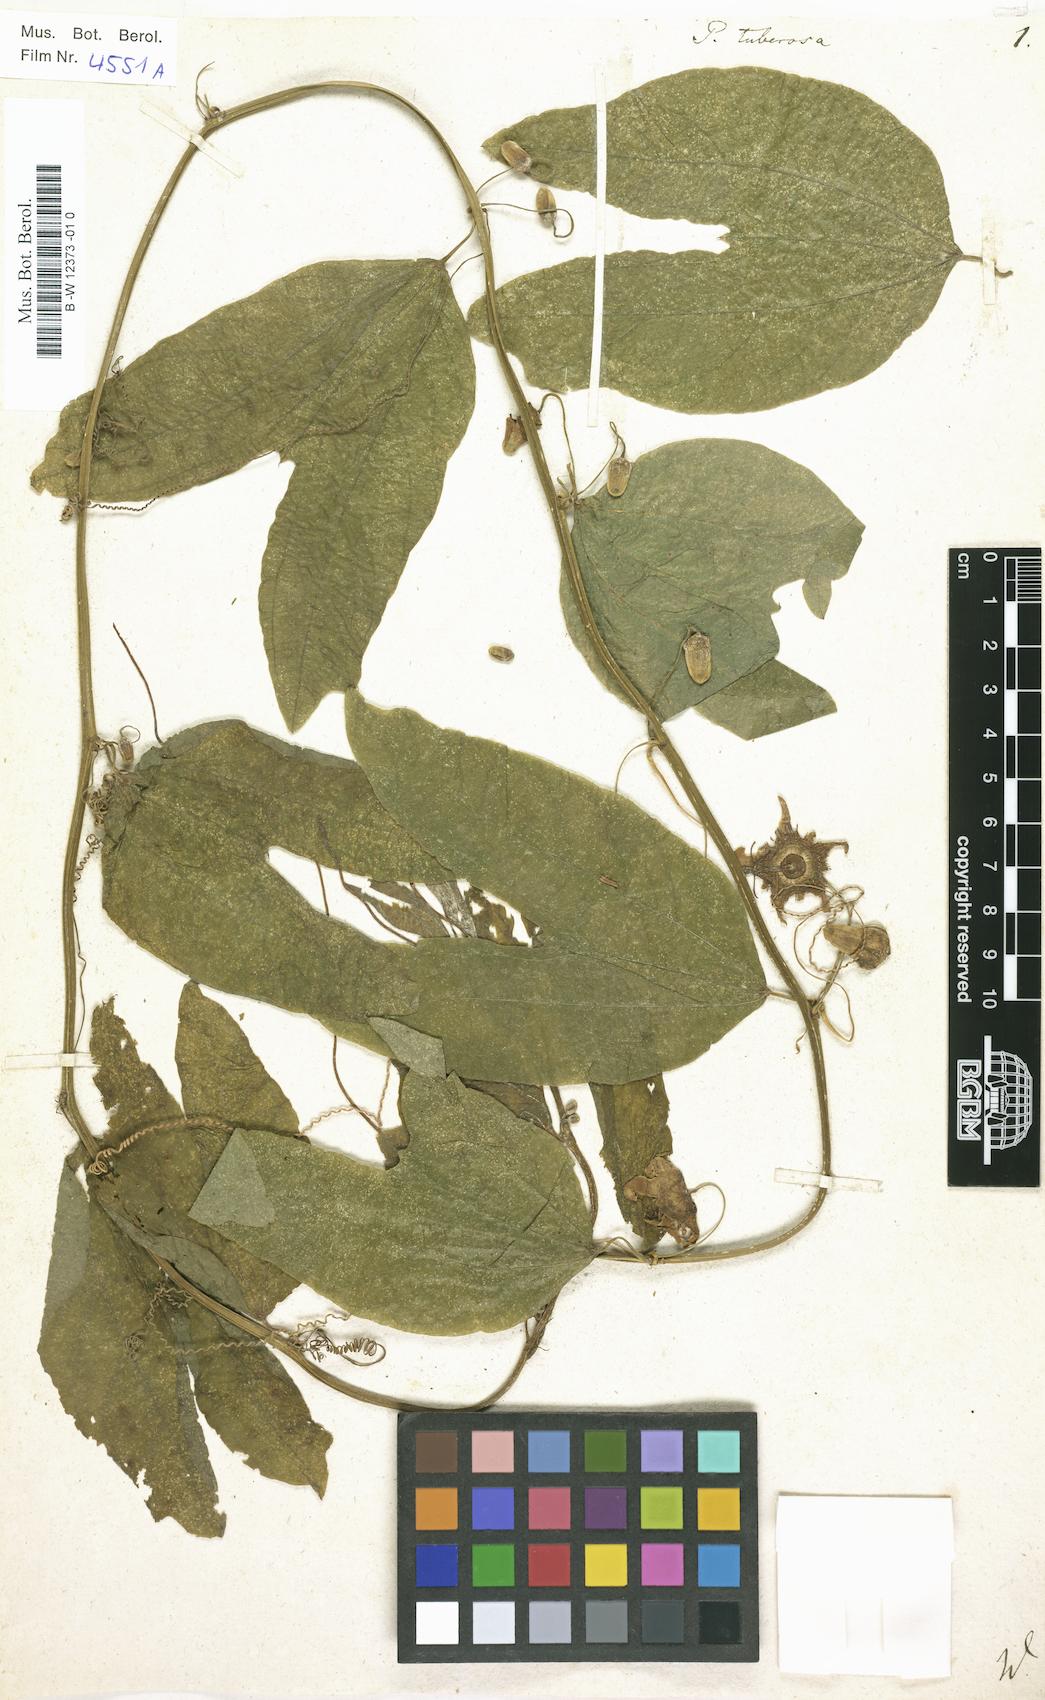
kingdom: Plantae
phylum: Tracheophyta
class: Magnoliopsida
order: Malpighiales
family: Passifloraceae
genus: Passiflora
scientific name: Passiflora tuberosa
